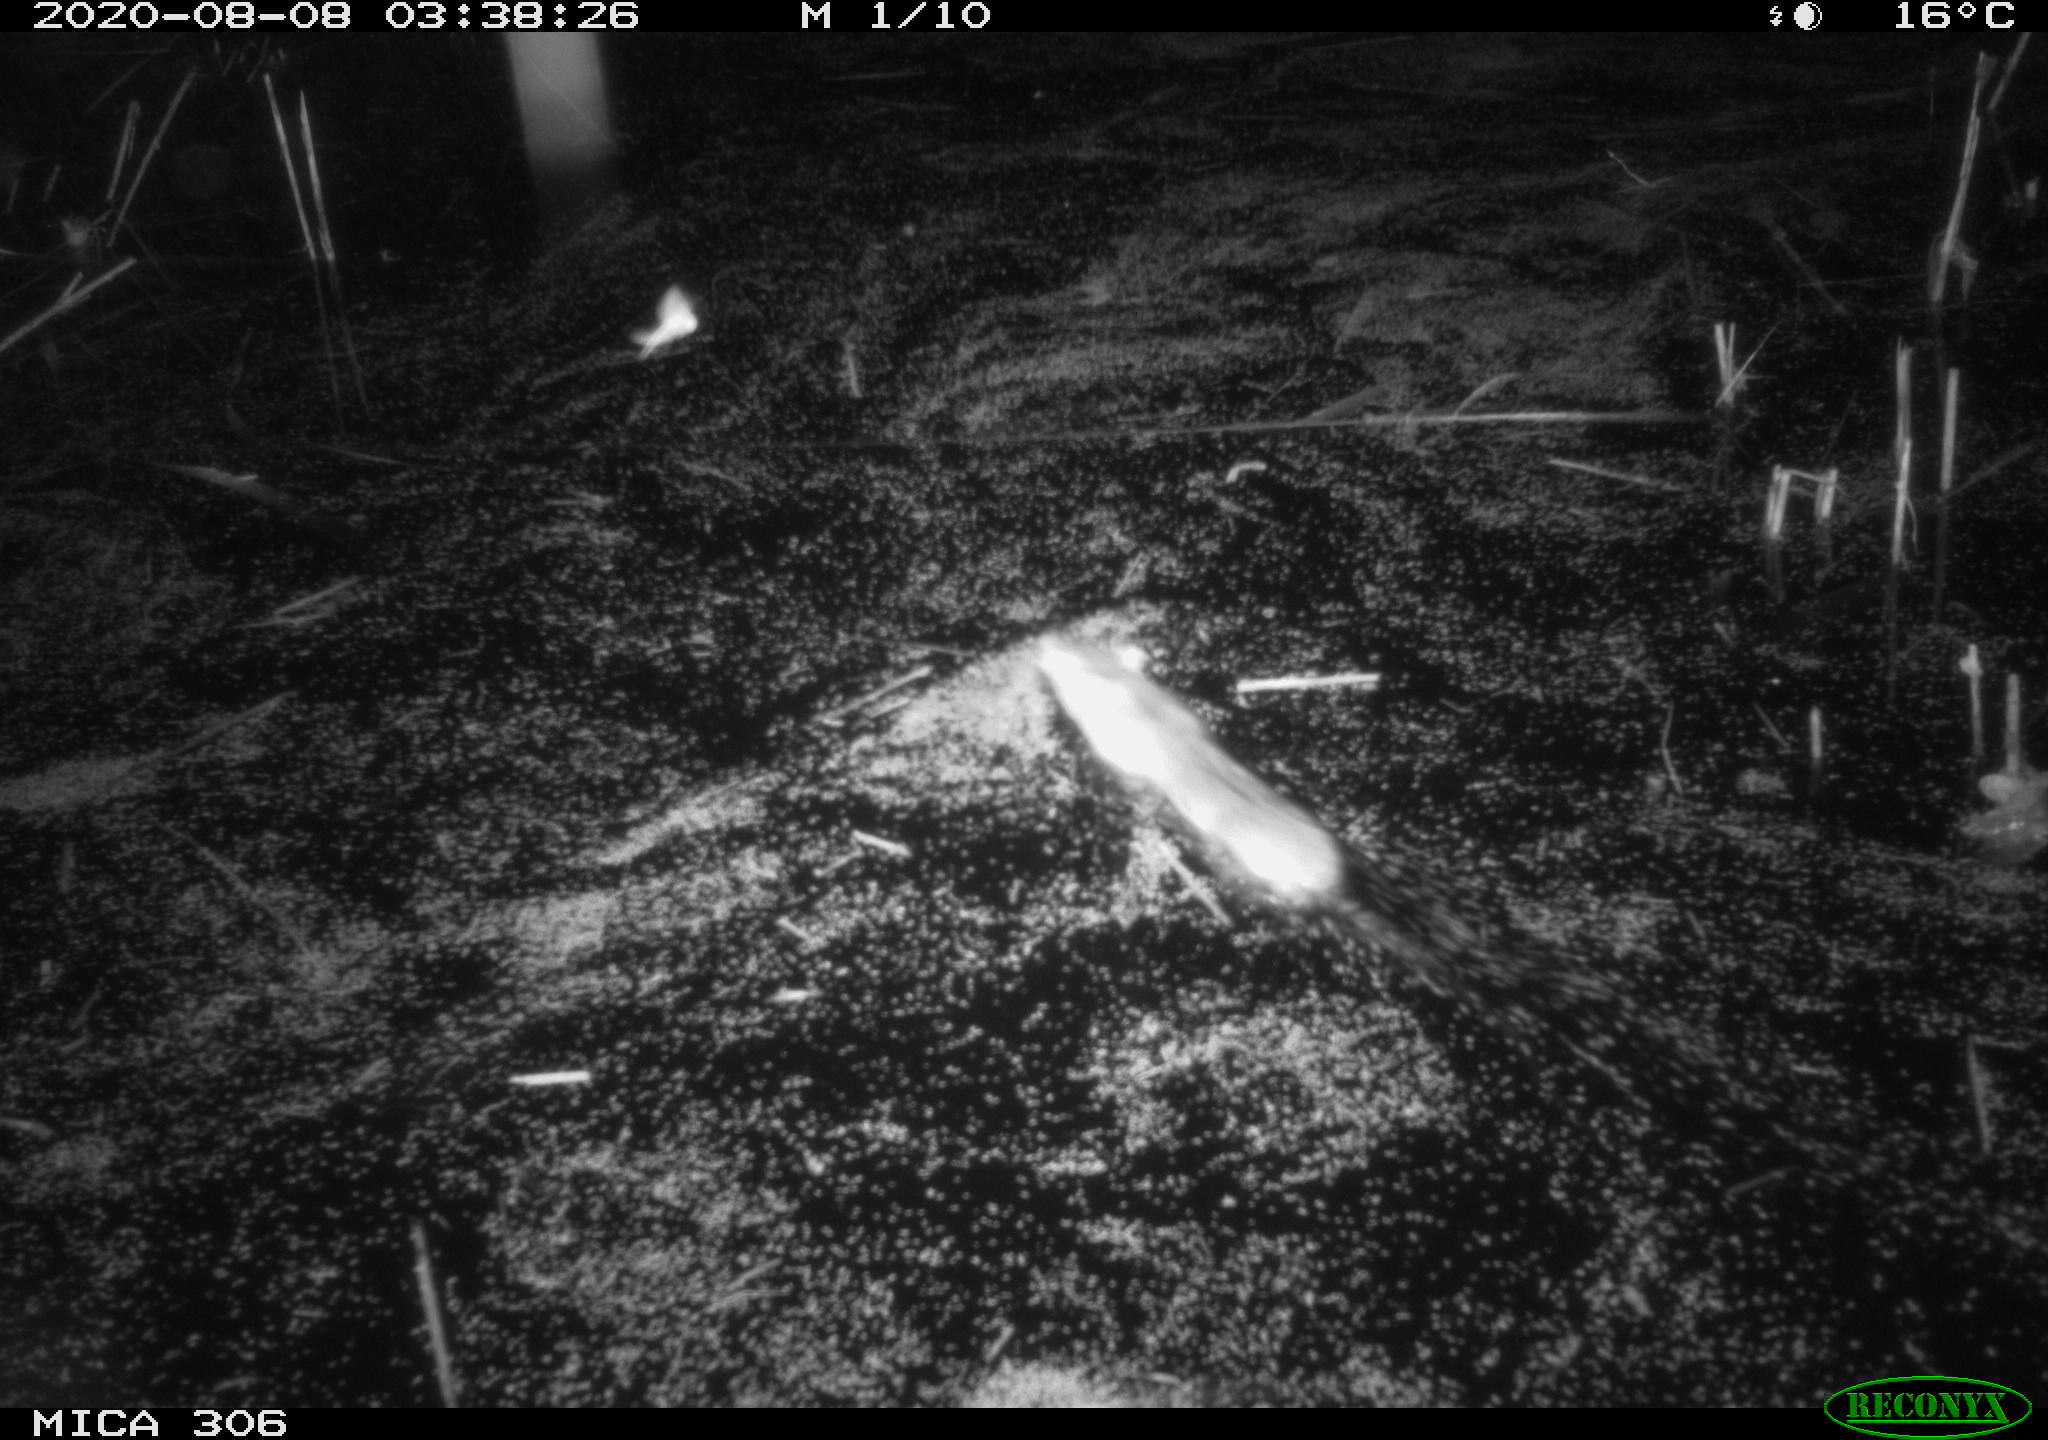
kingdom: Animalia
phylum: Chordata
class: Mammalia
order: Rodentia
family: Muridae
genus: Rattus
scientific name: Rattus norvegicus
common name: Brown rat
